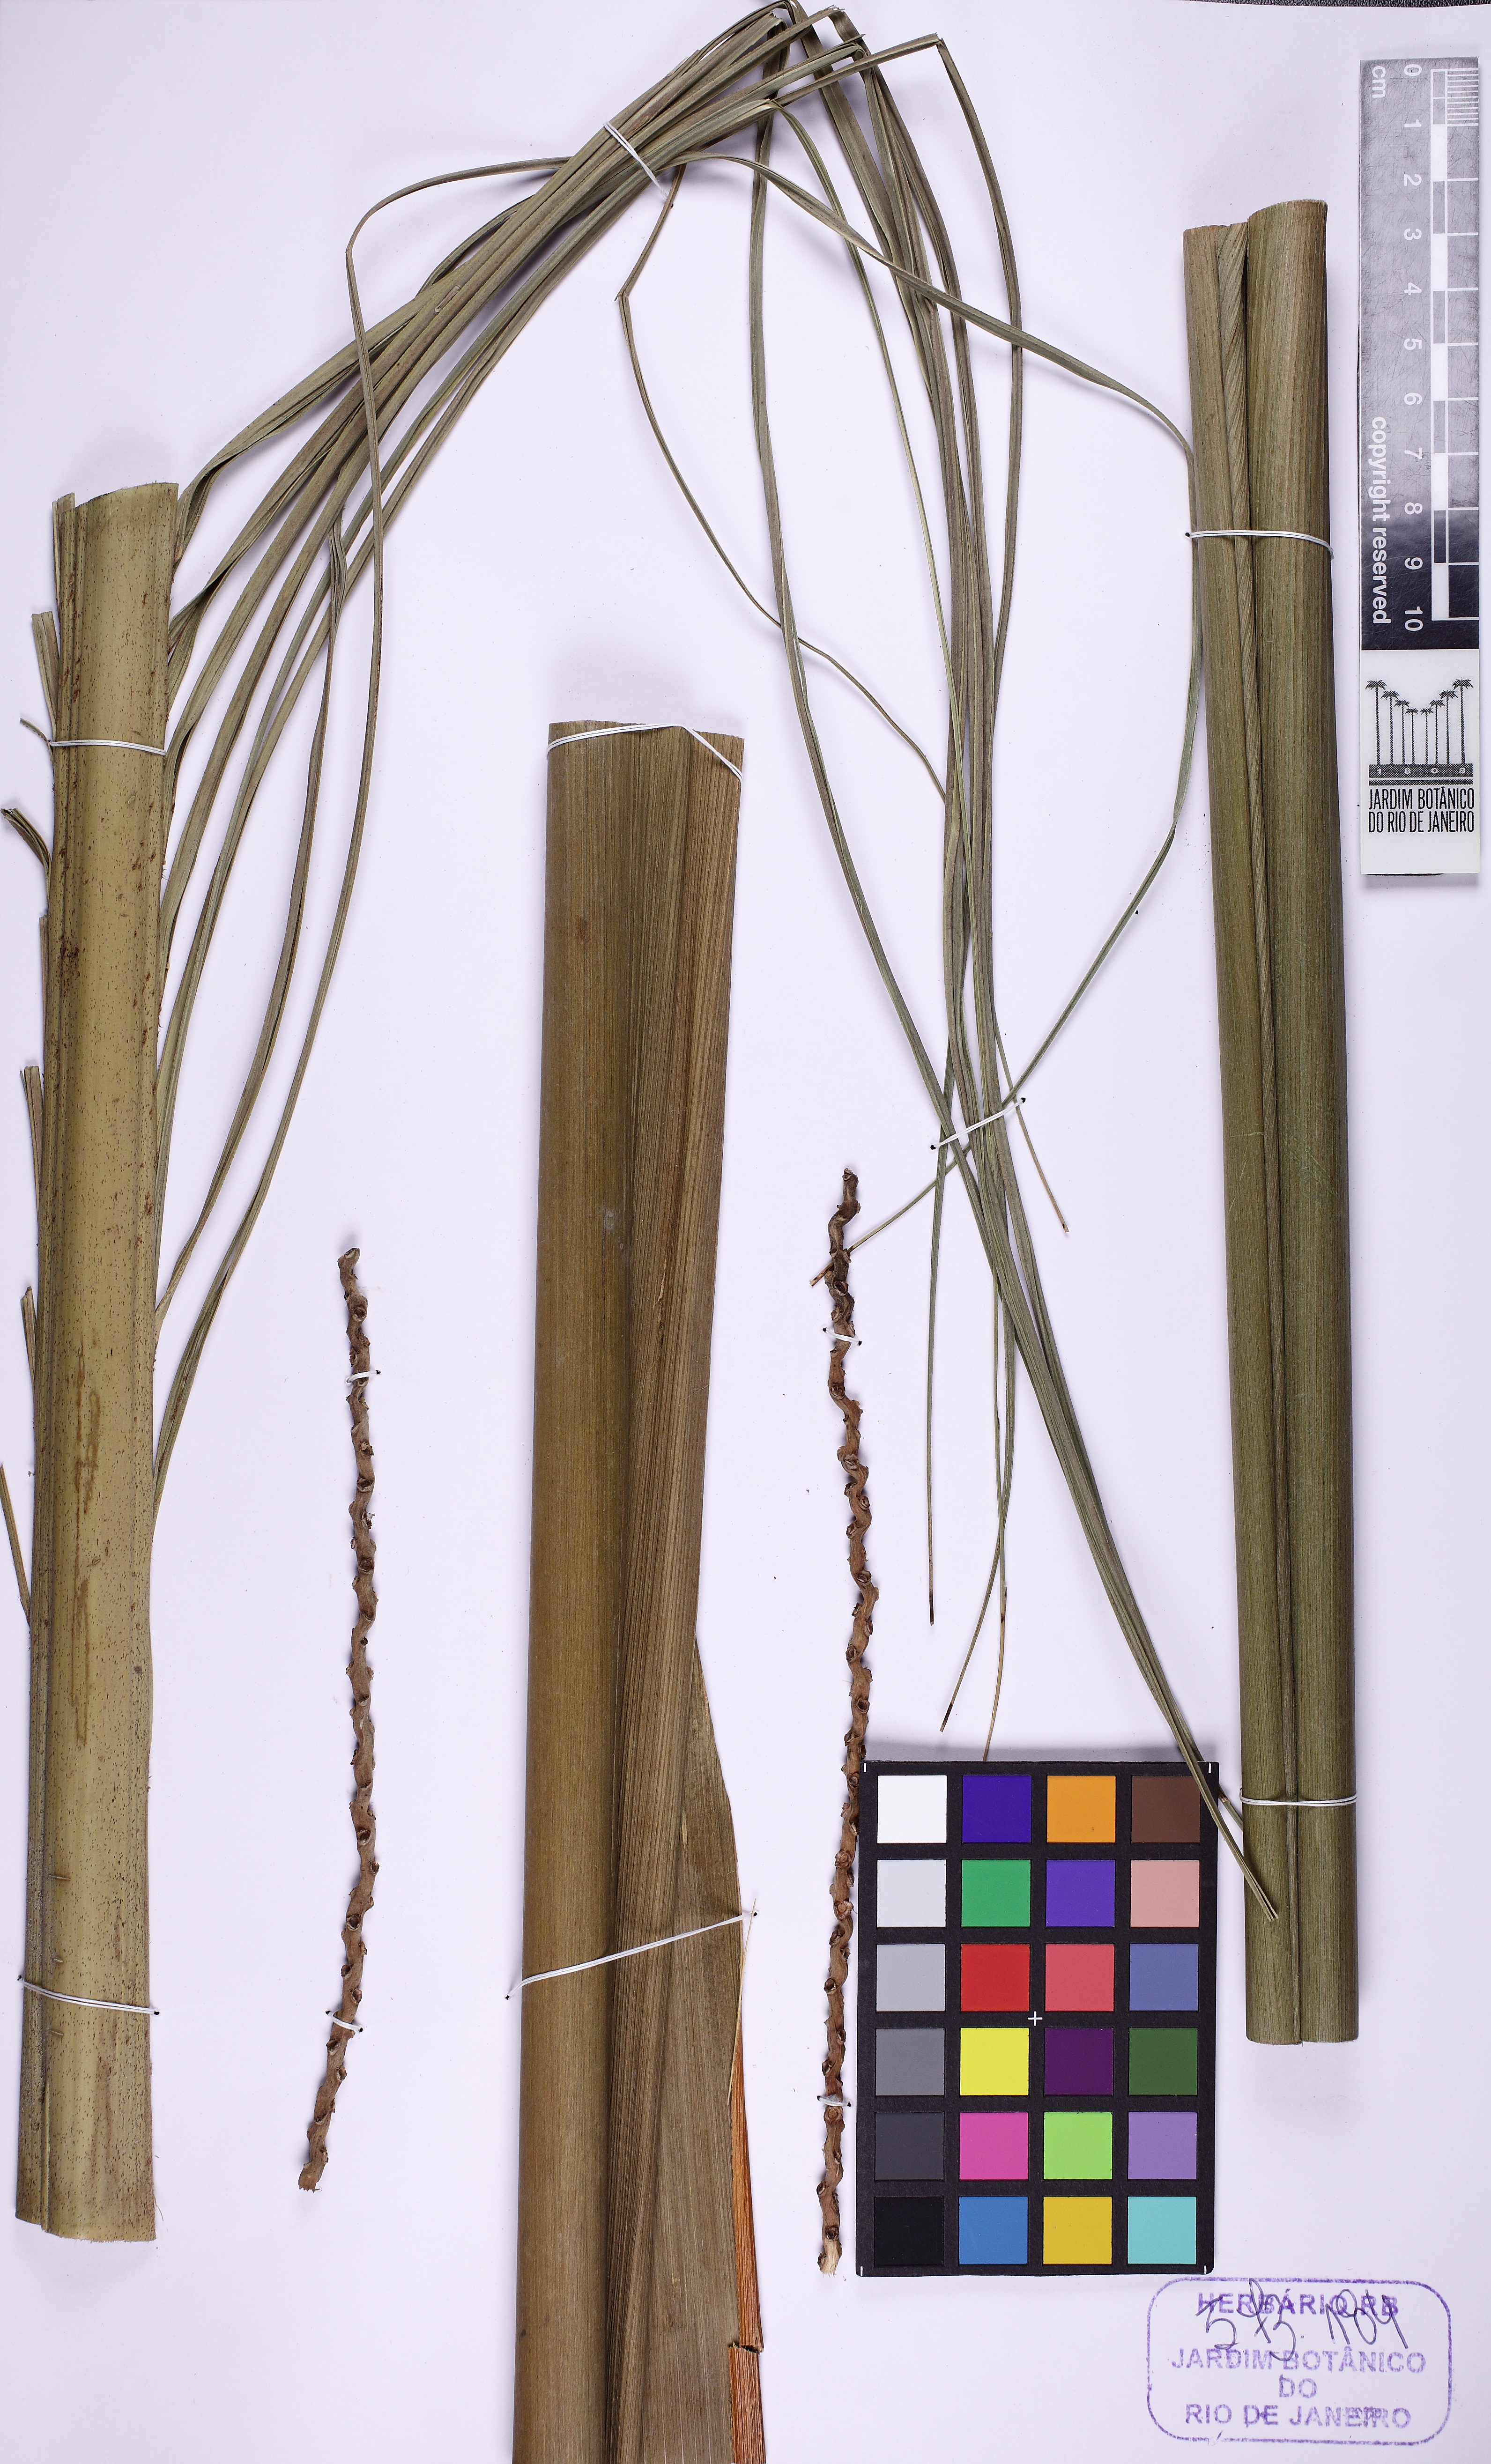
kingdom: Plantae
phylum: Tracheophyta
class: Liliopsida
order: Arecales
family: Arecaceae
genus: Euterpe
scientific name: Euterpe
